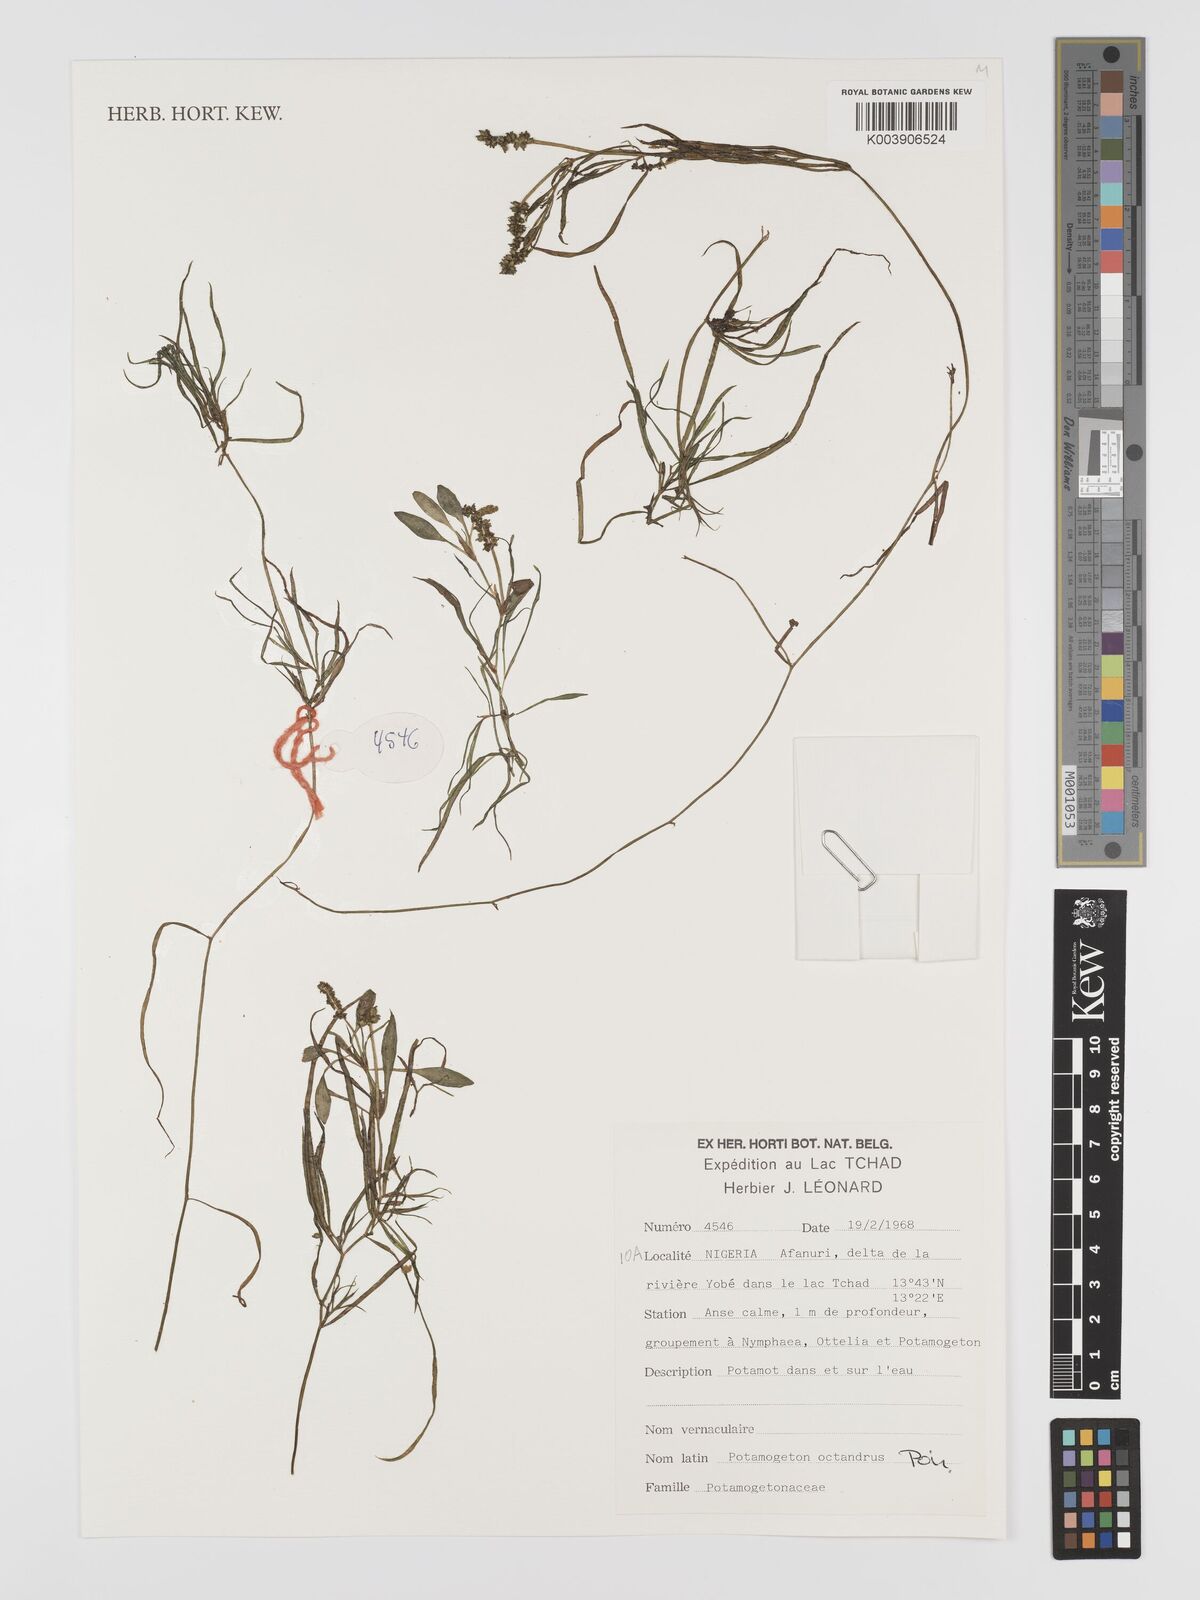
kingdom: Plantae
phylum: Tracheophyta
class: Liliopsida
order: Alismatales
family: Potamogetonaceae
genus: Potamogeton
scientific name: Potamogeton octandrus
